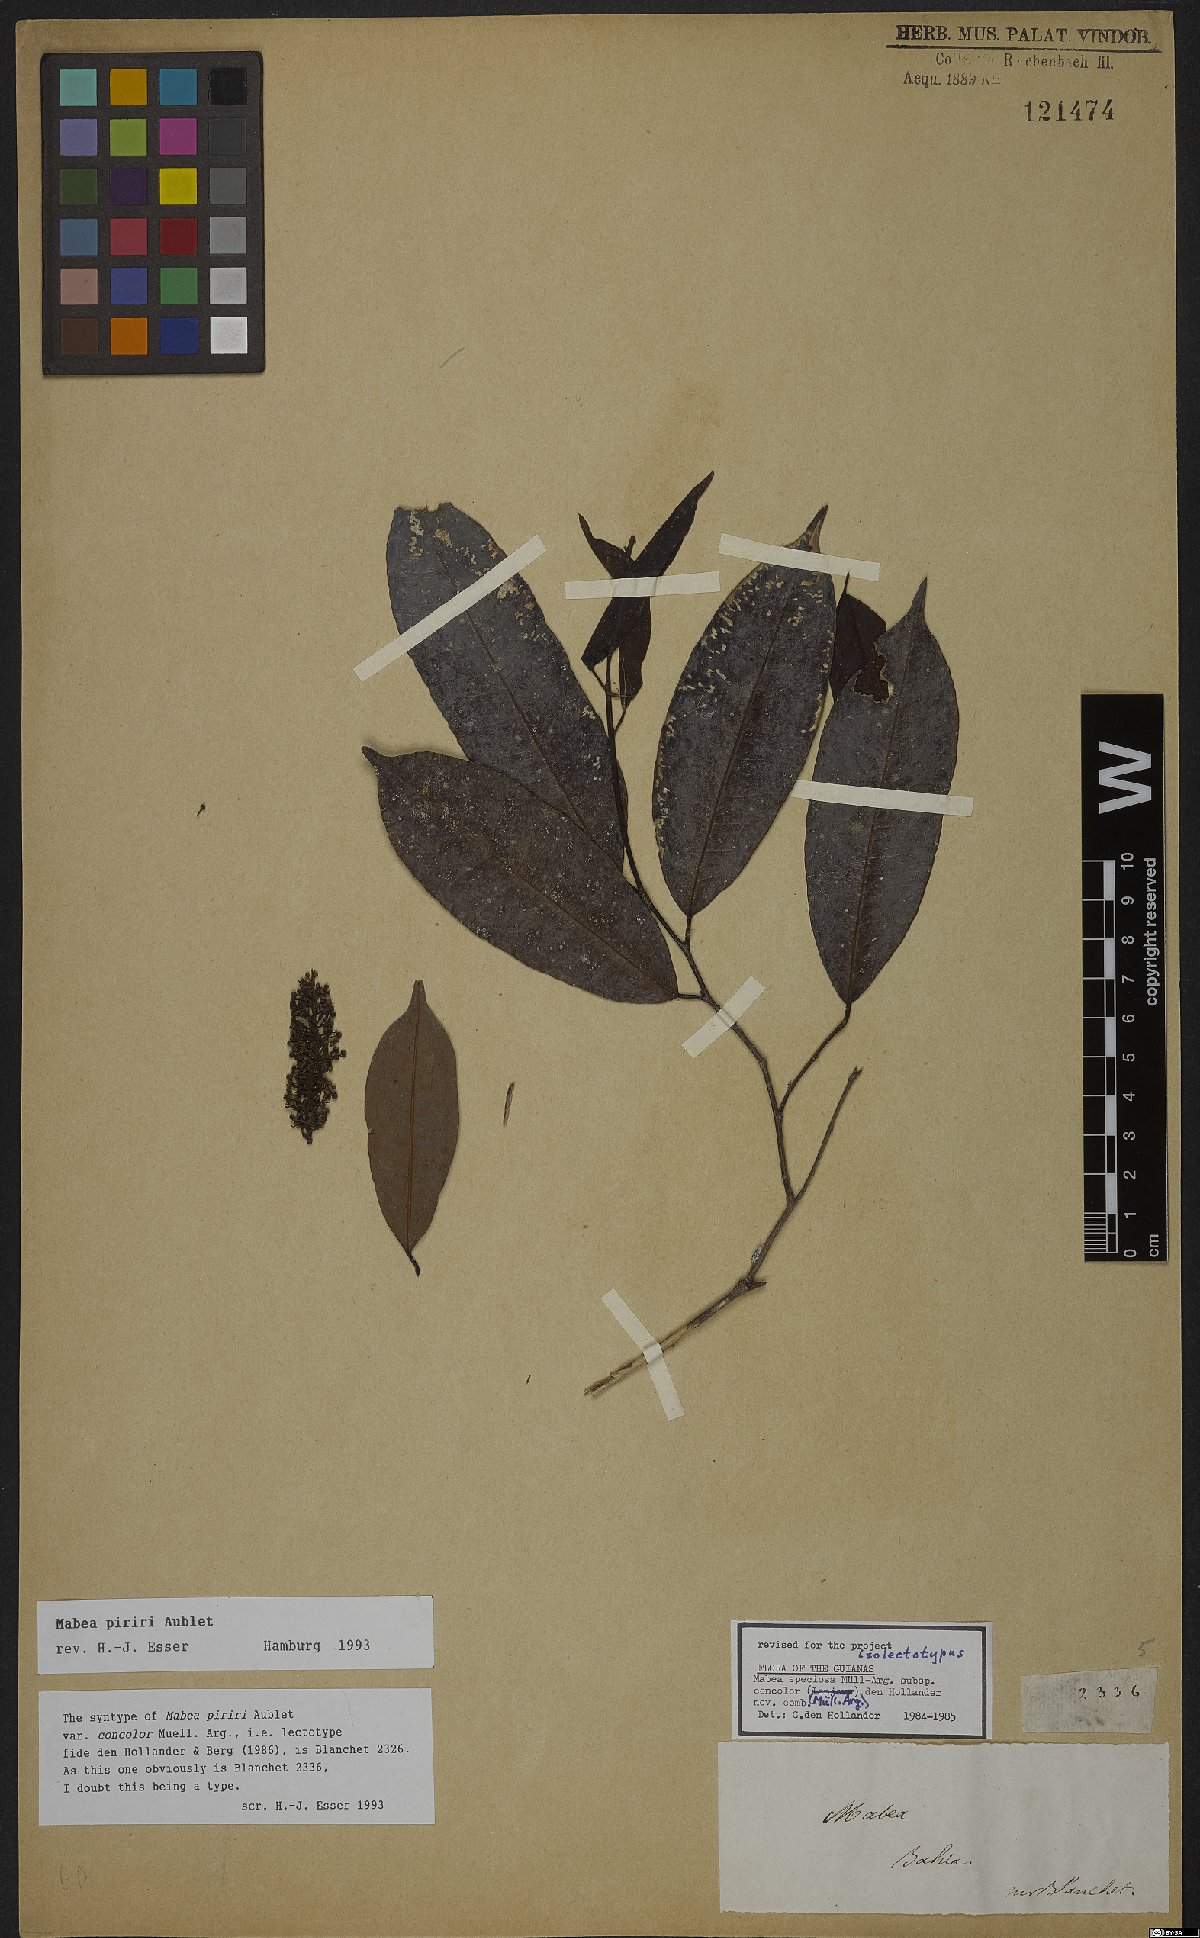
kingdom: Plantae
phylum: Tracheophyta
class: Magnoliopsida
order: Malpighiales
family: Euphorbiaceae
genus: Mabea
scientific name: Mabea piriri
